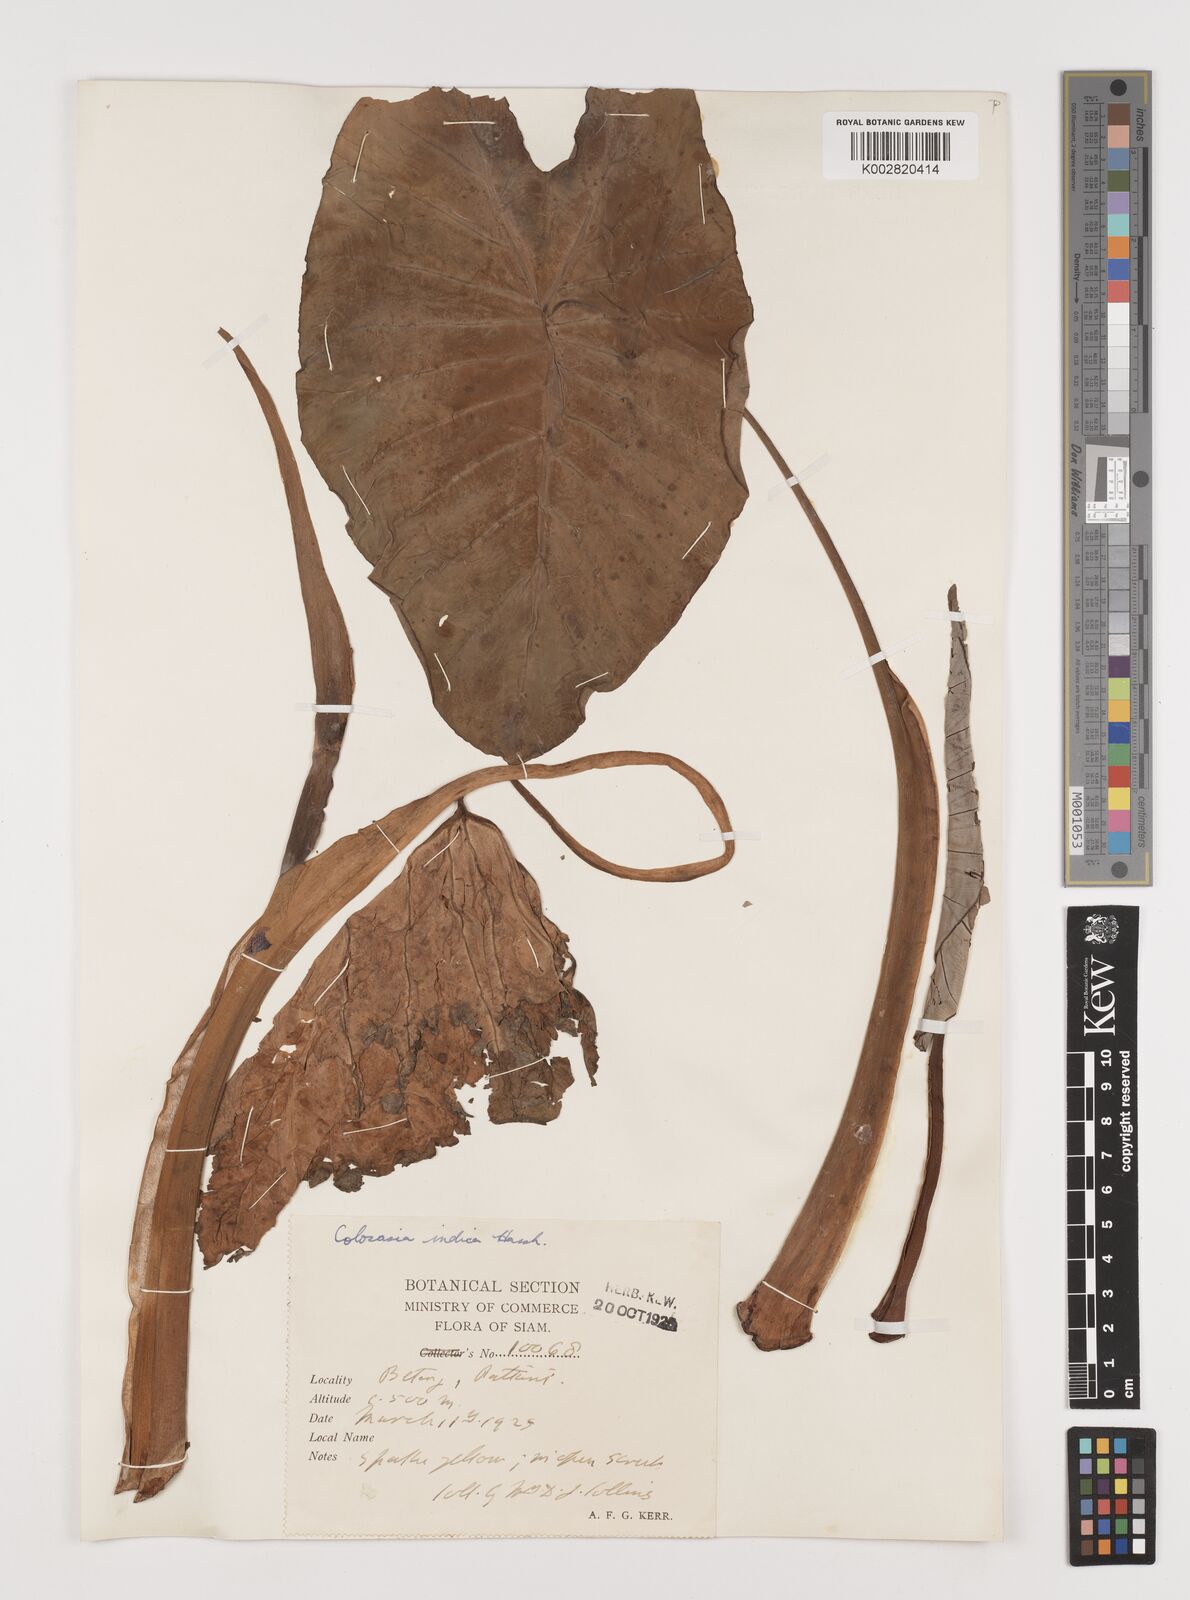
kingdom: Plantae
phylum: Tracheophyta
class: Liliopsida
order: Alismatales
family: Araceae
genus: Colocasia
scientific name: Colocasia esculenta
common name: Taro
